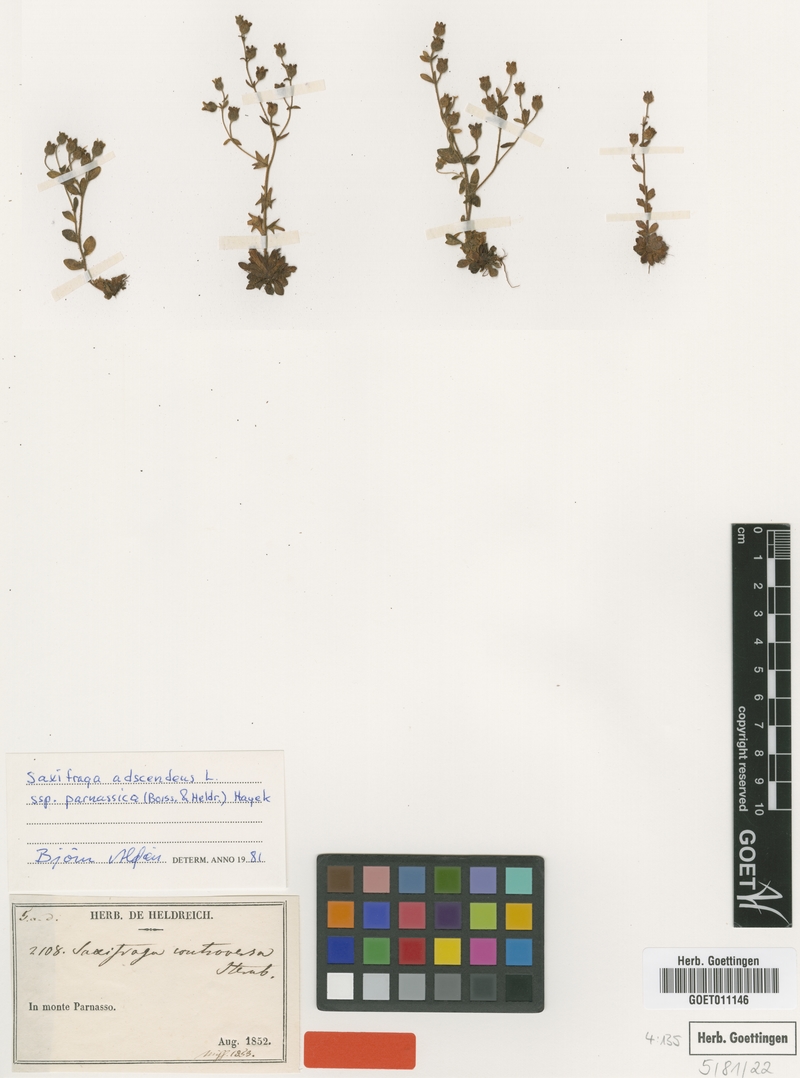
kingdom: Plantae
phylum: Tracheophyta
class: Magnoliopsida
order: Saxifragales
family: Saxifragaceae
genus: Saxifraga
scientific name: Saxifraga adscendens
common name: Ascending saxifrage
